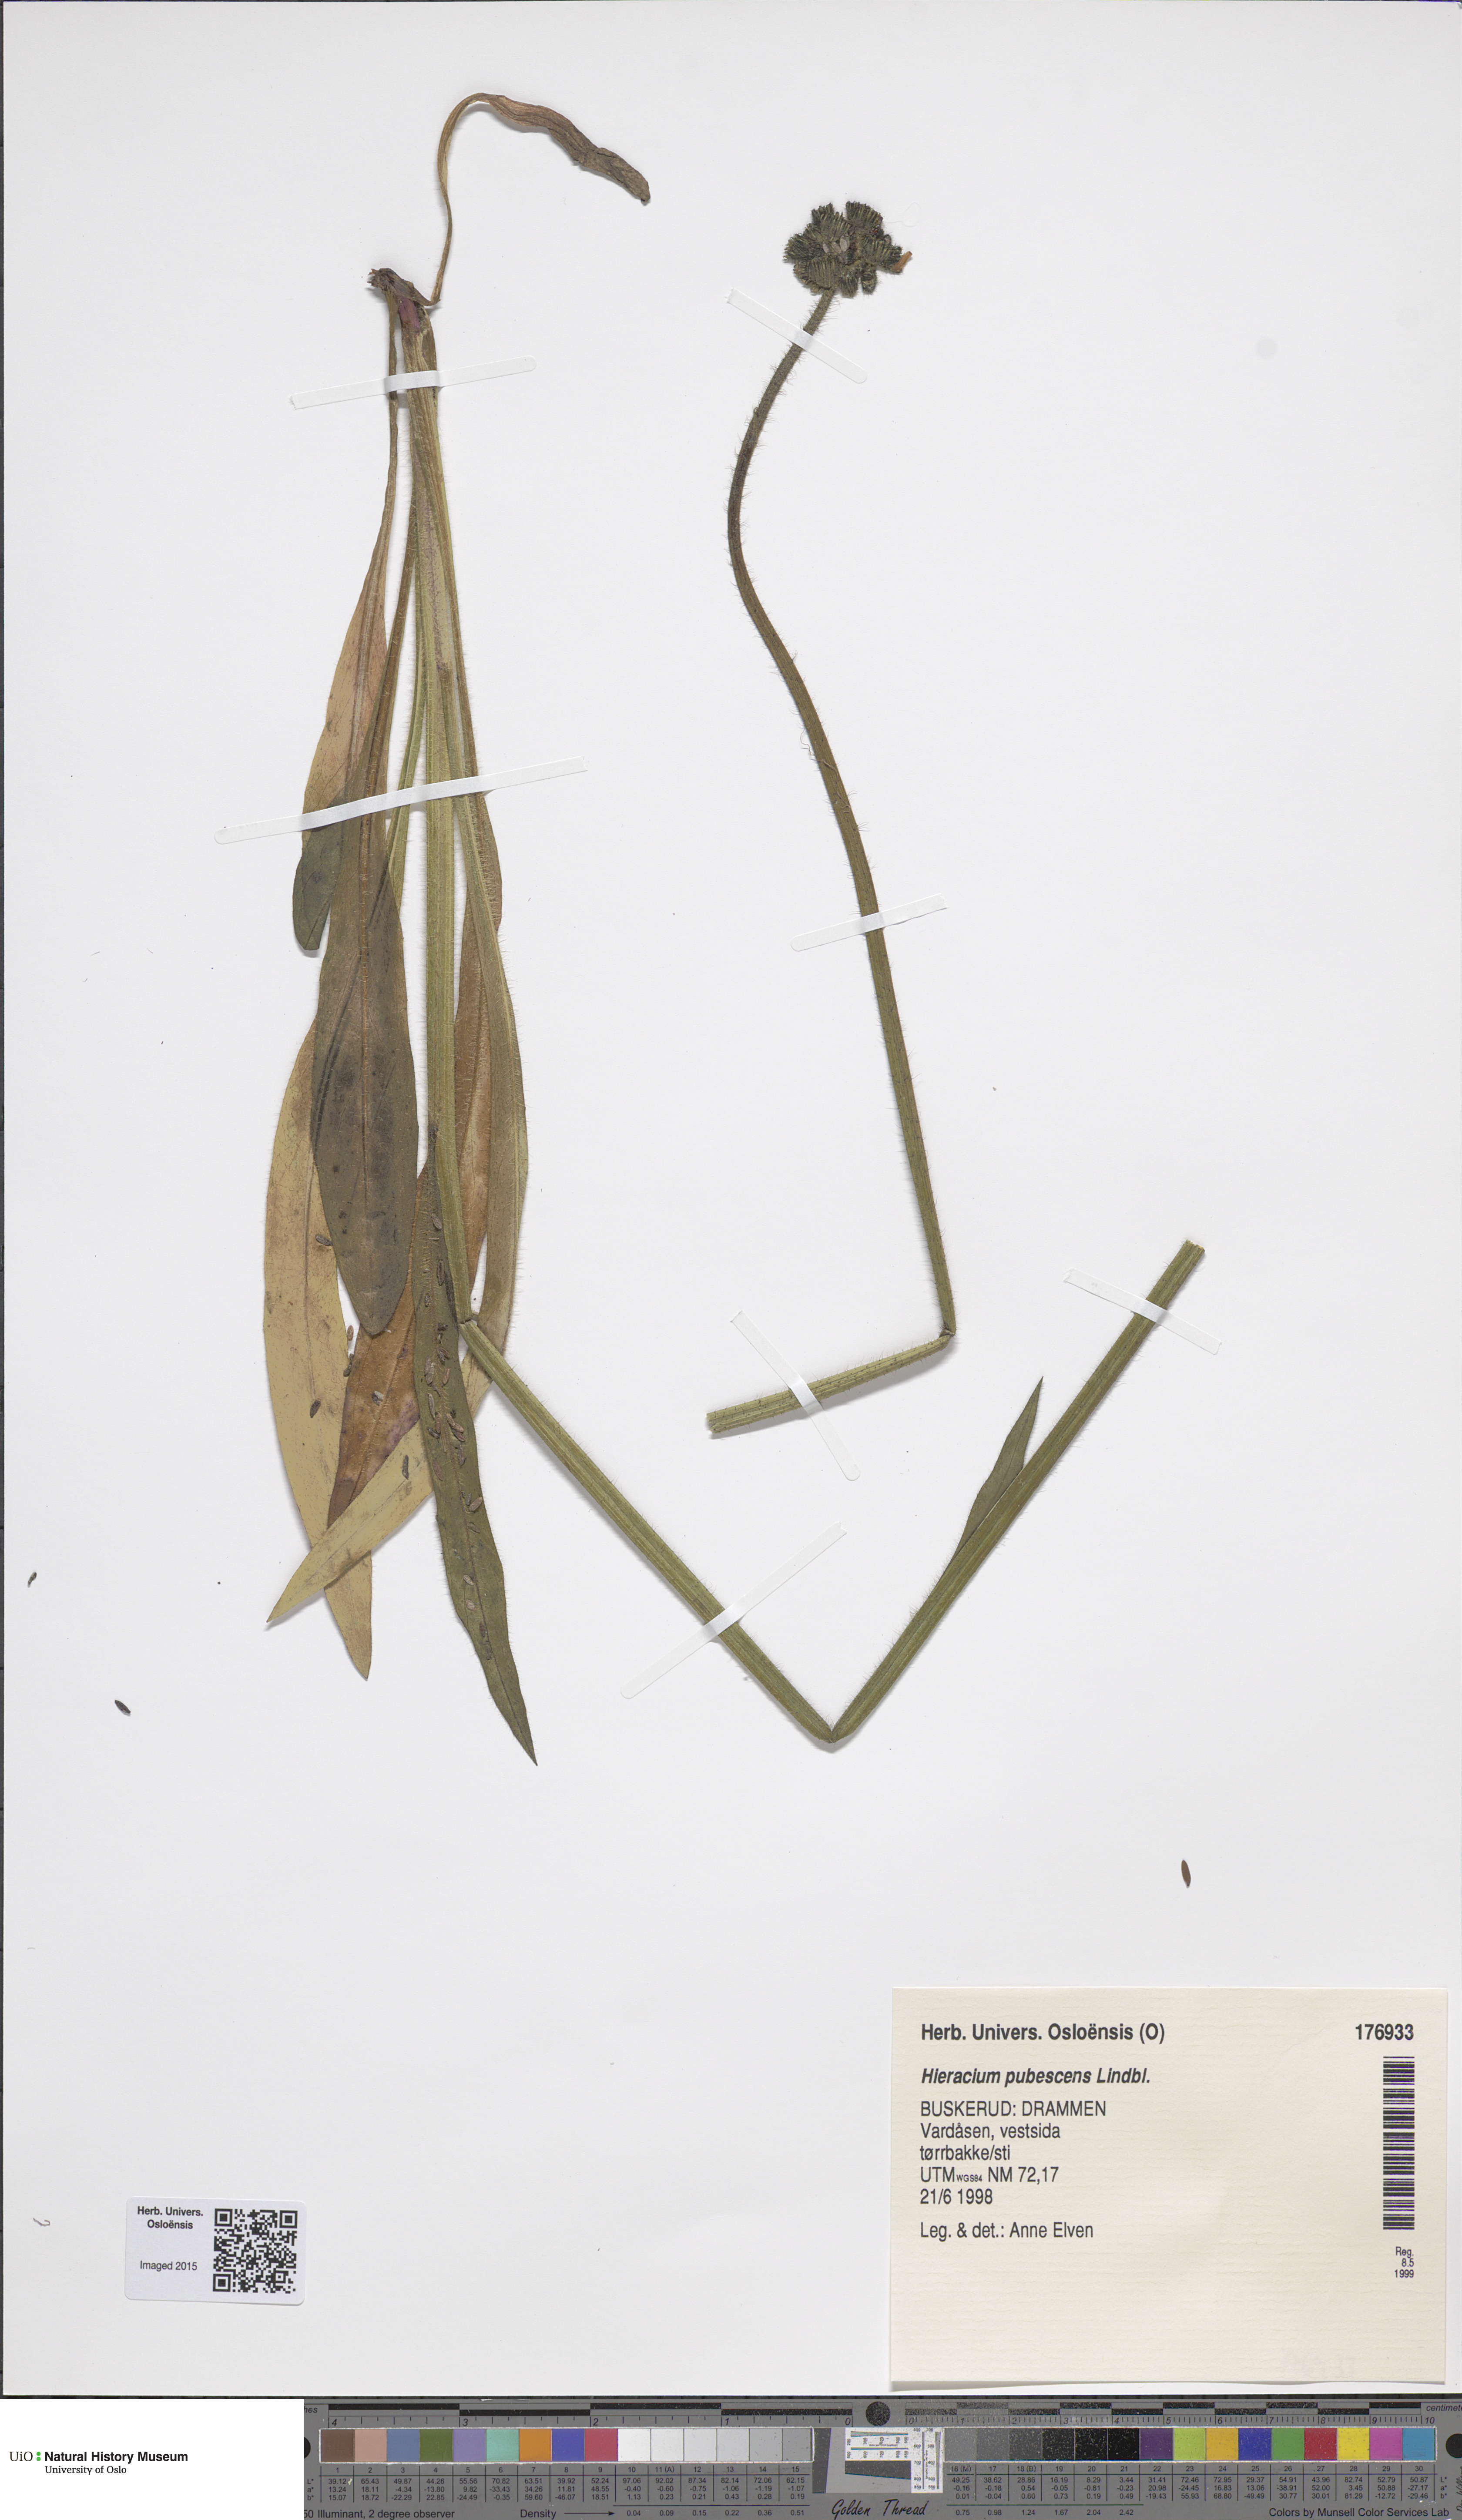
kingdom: Plantae
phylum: Tracheophyta
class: Magnoliopsida
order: Asterales
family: Asteraceae
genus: Pilosella
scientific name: Pilosella cymosa
